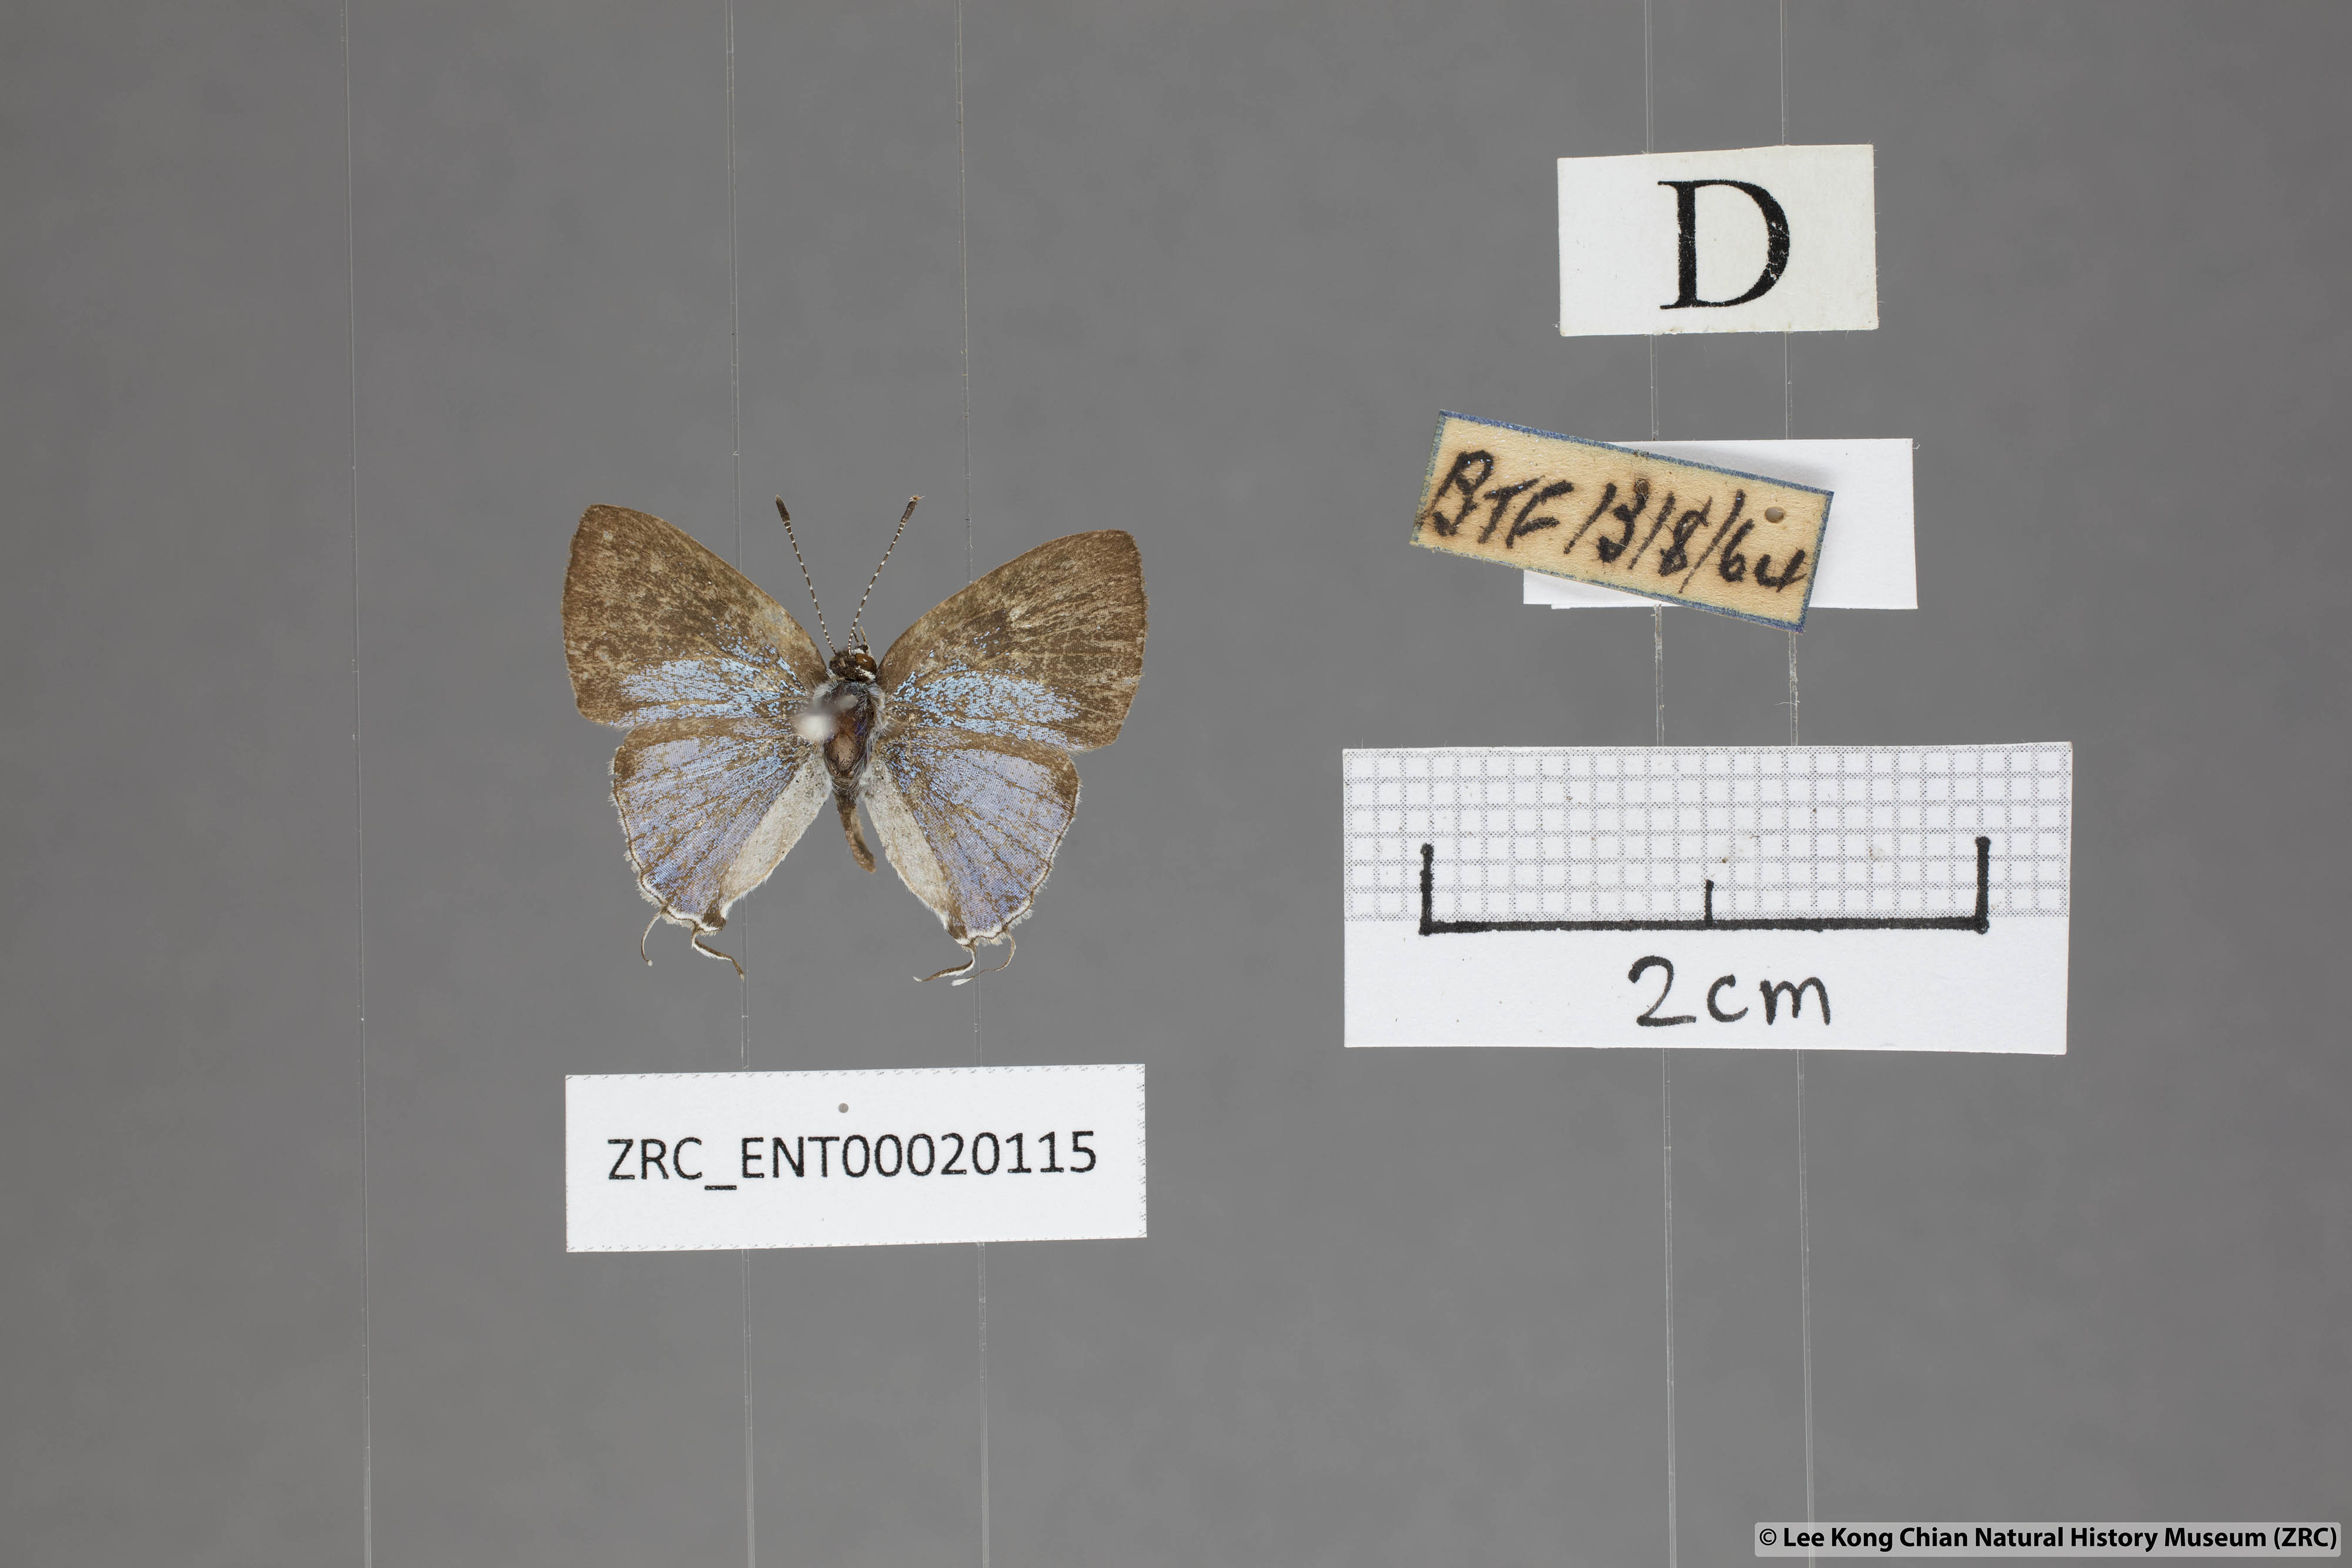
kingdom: Animalia
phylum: Arthropoda
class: Insecta
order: Lepidoptera
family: Lycaenidae
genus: Chliaria
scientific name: Chliaria othona
